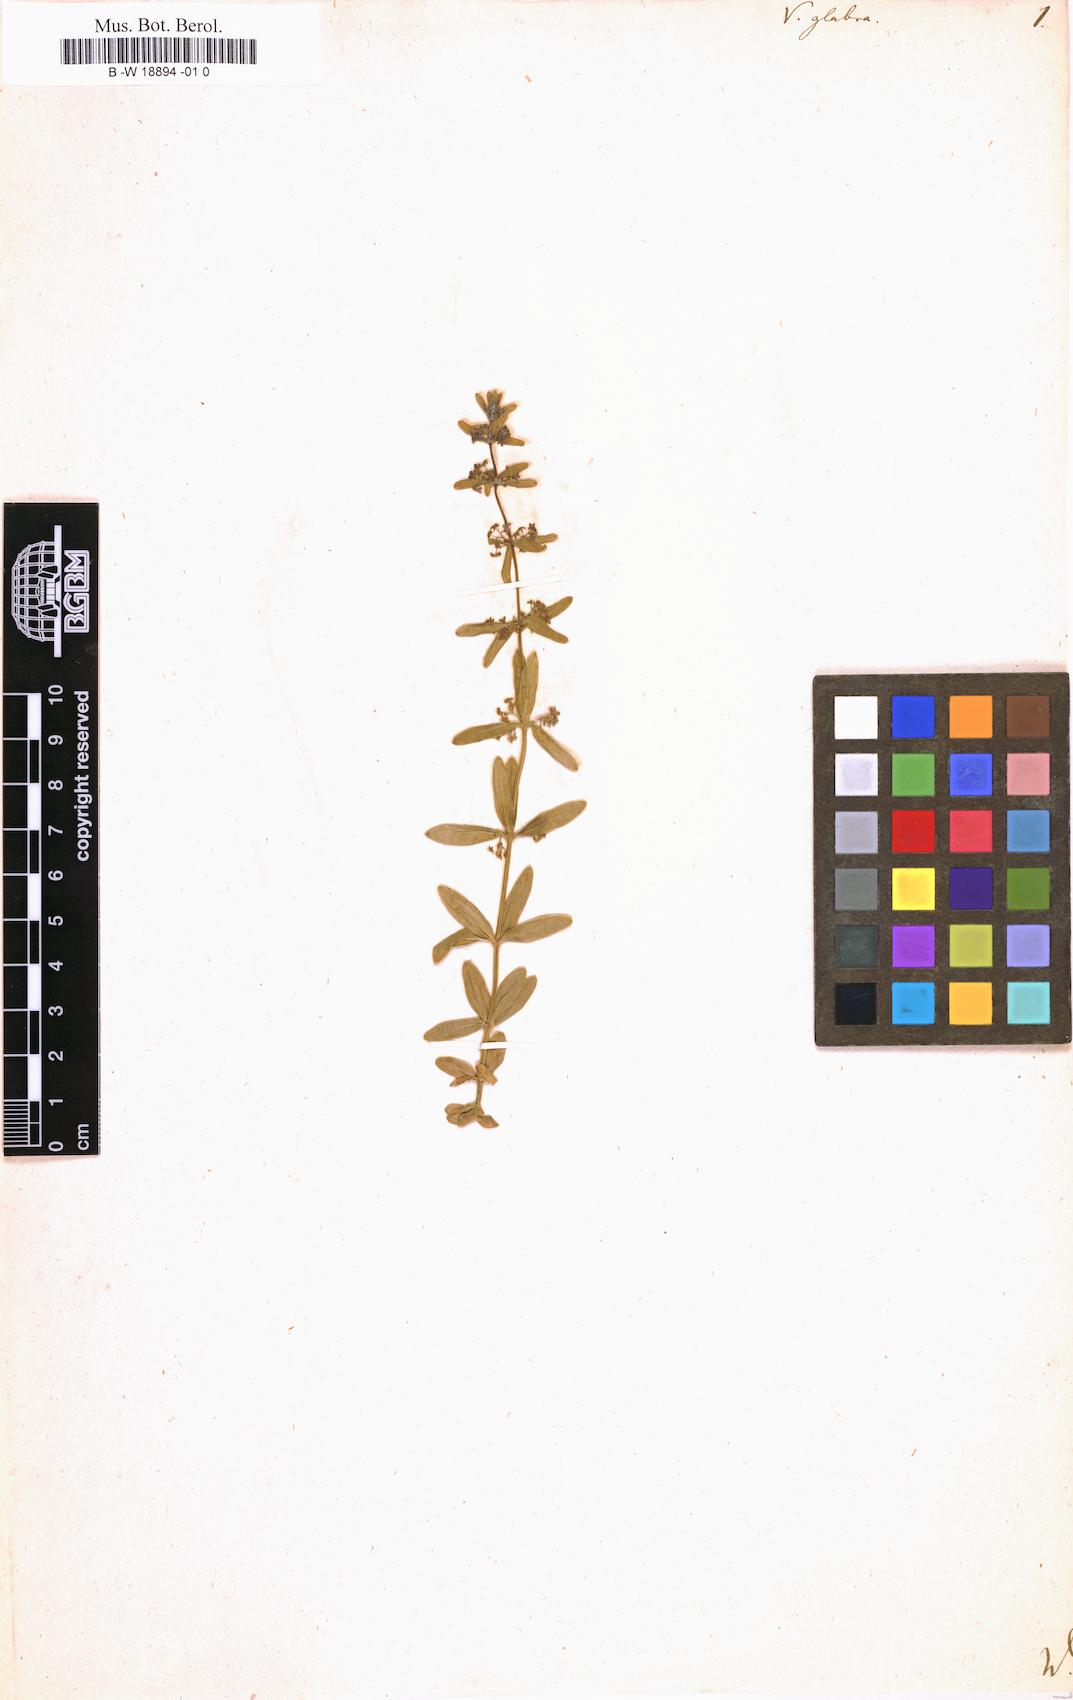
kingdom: Plantae
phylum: Tracheophyta
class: Magnoliopsida
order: Gentianales
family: Rubiaceae
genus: Cruciata
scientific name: Cruciata glabra
